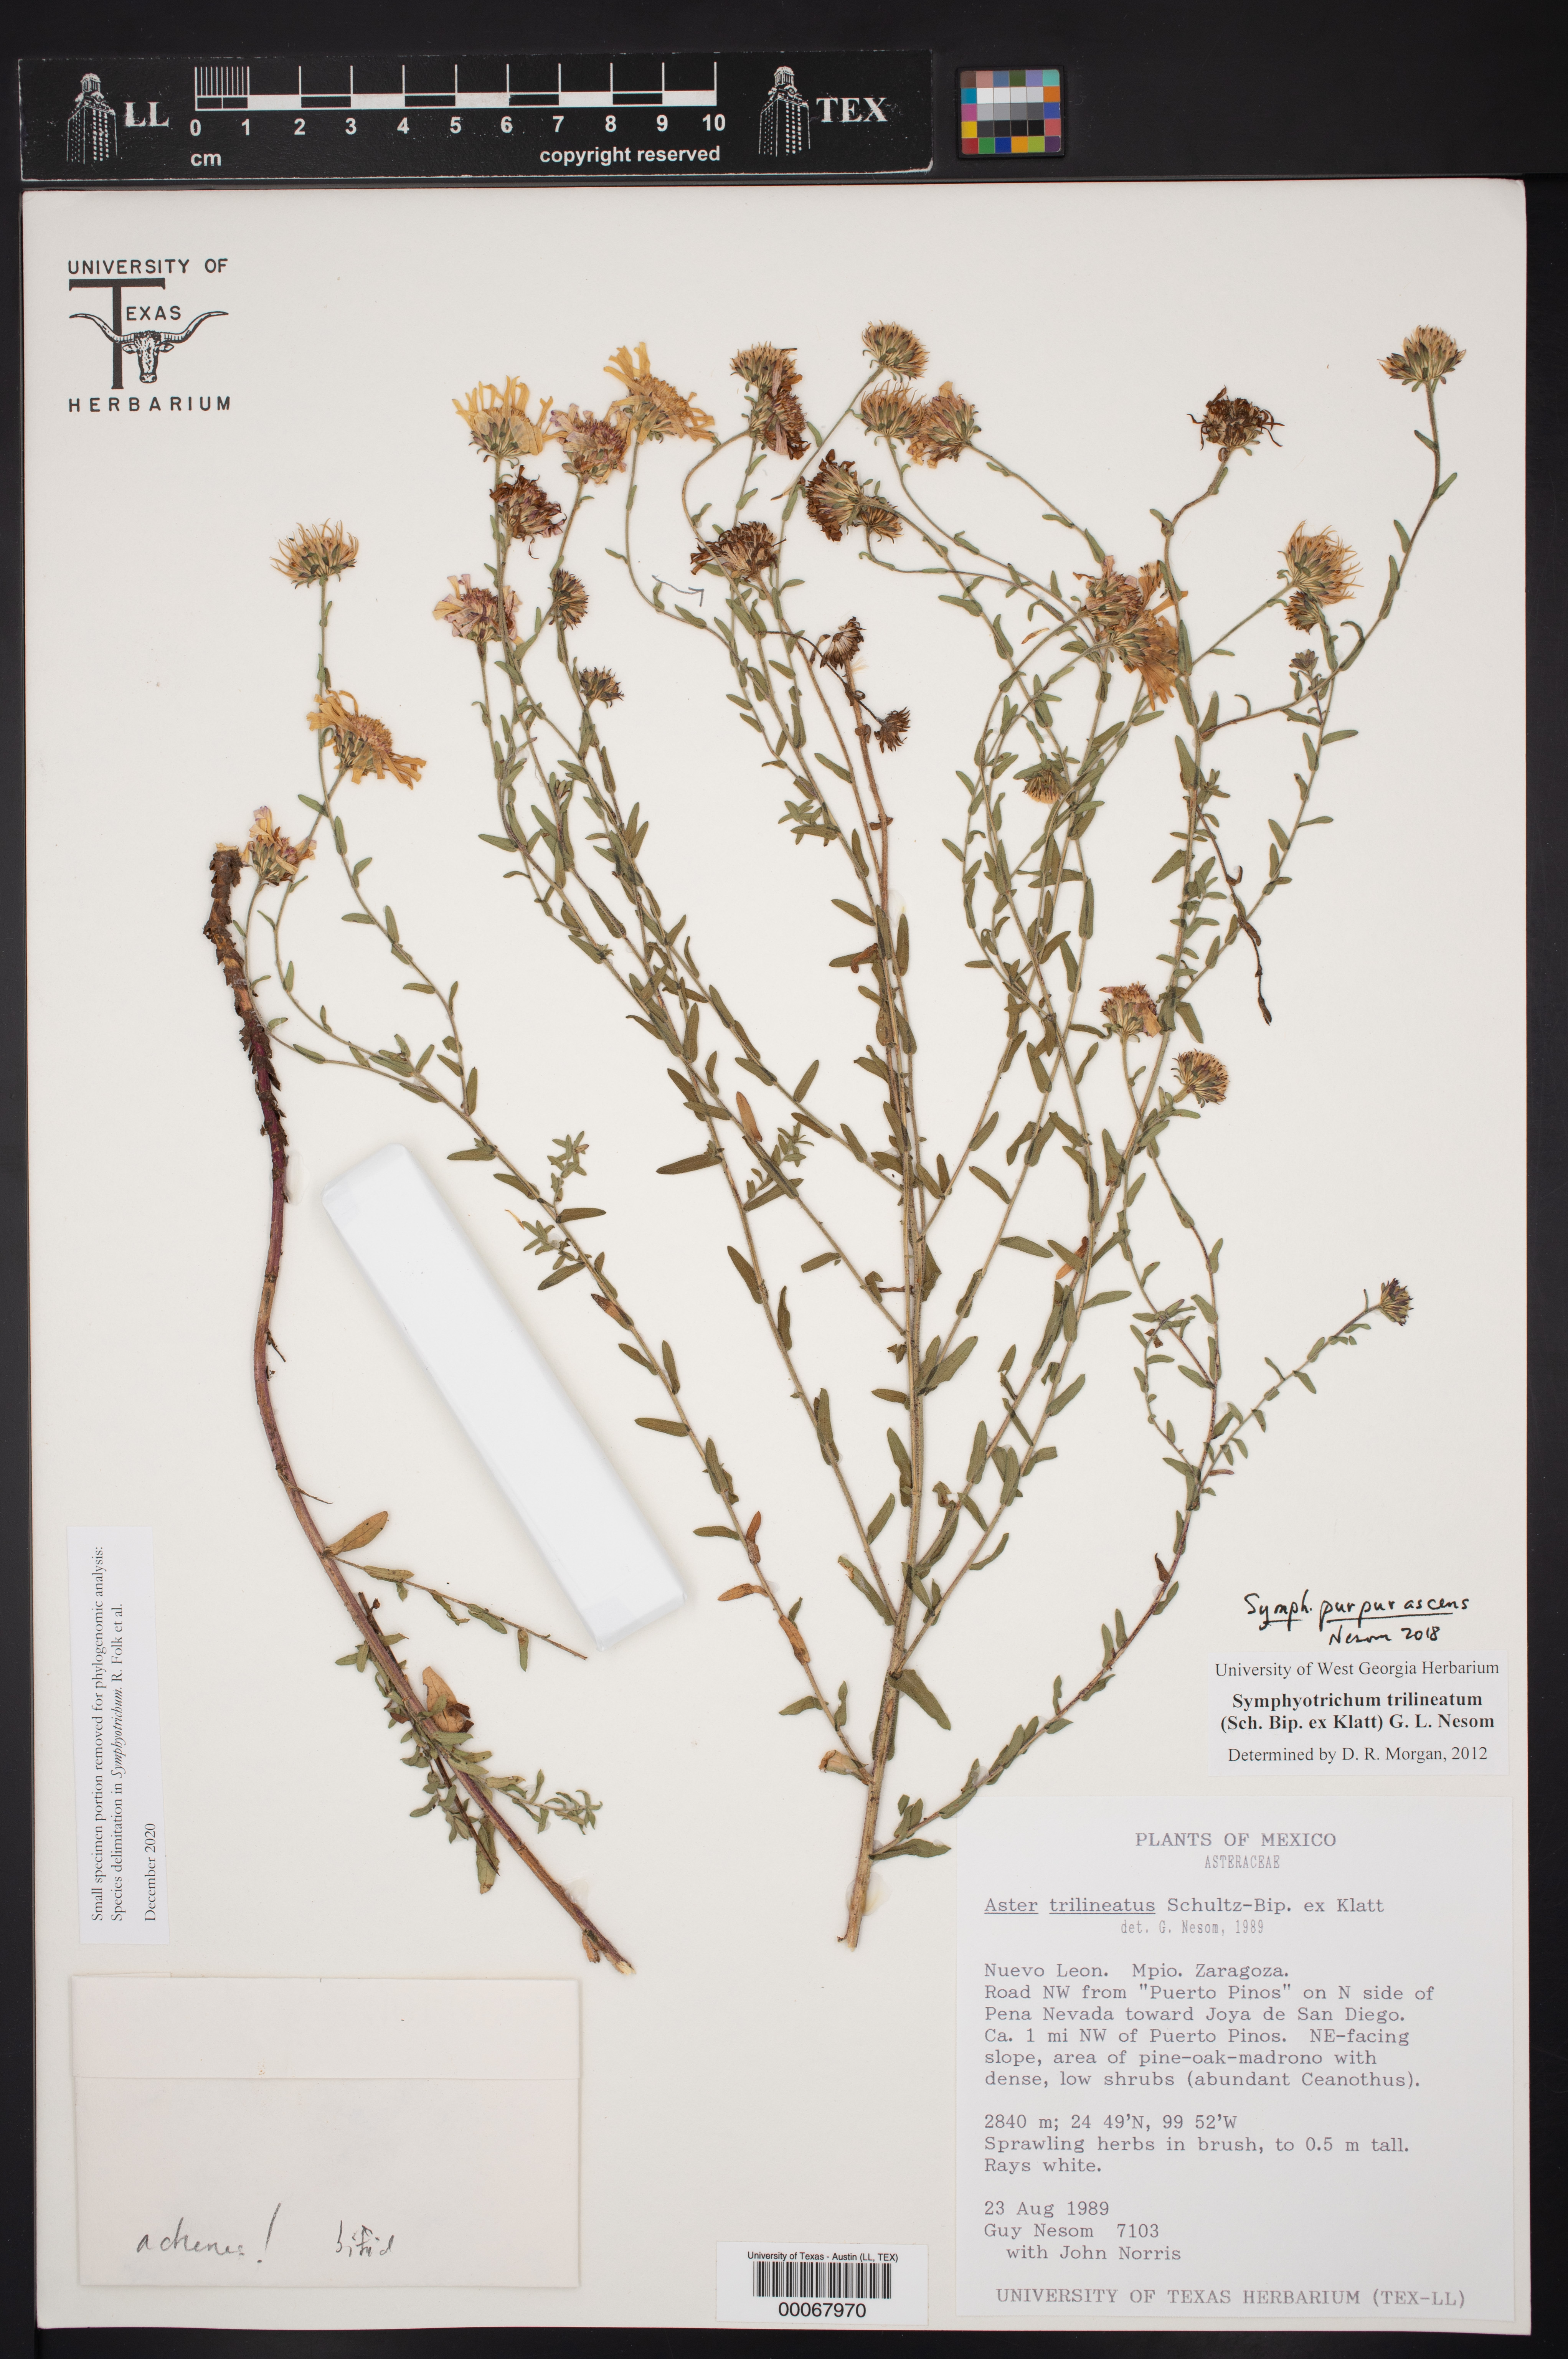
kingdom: Plantae
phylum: Tracheophyta
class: Magnoliopsida
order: Asterales
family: Asteraceae
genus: Symphyotrichum
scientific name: Symphyotrichum purpurascens
